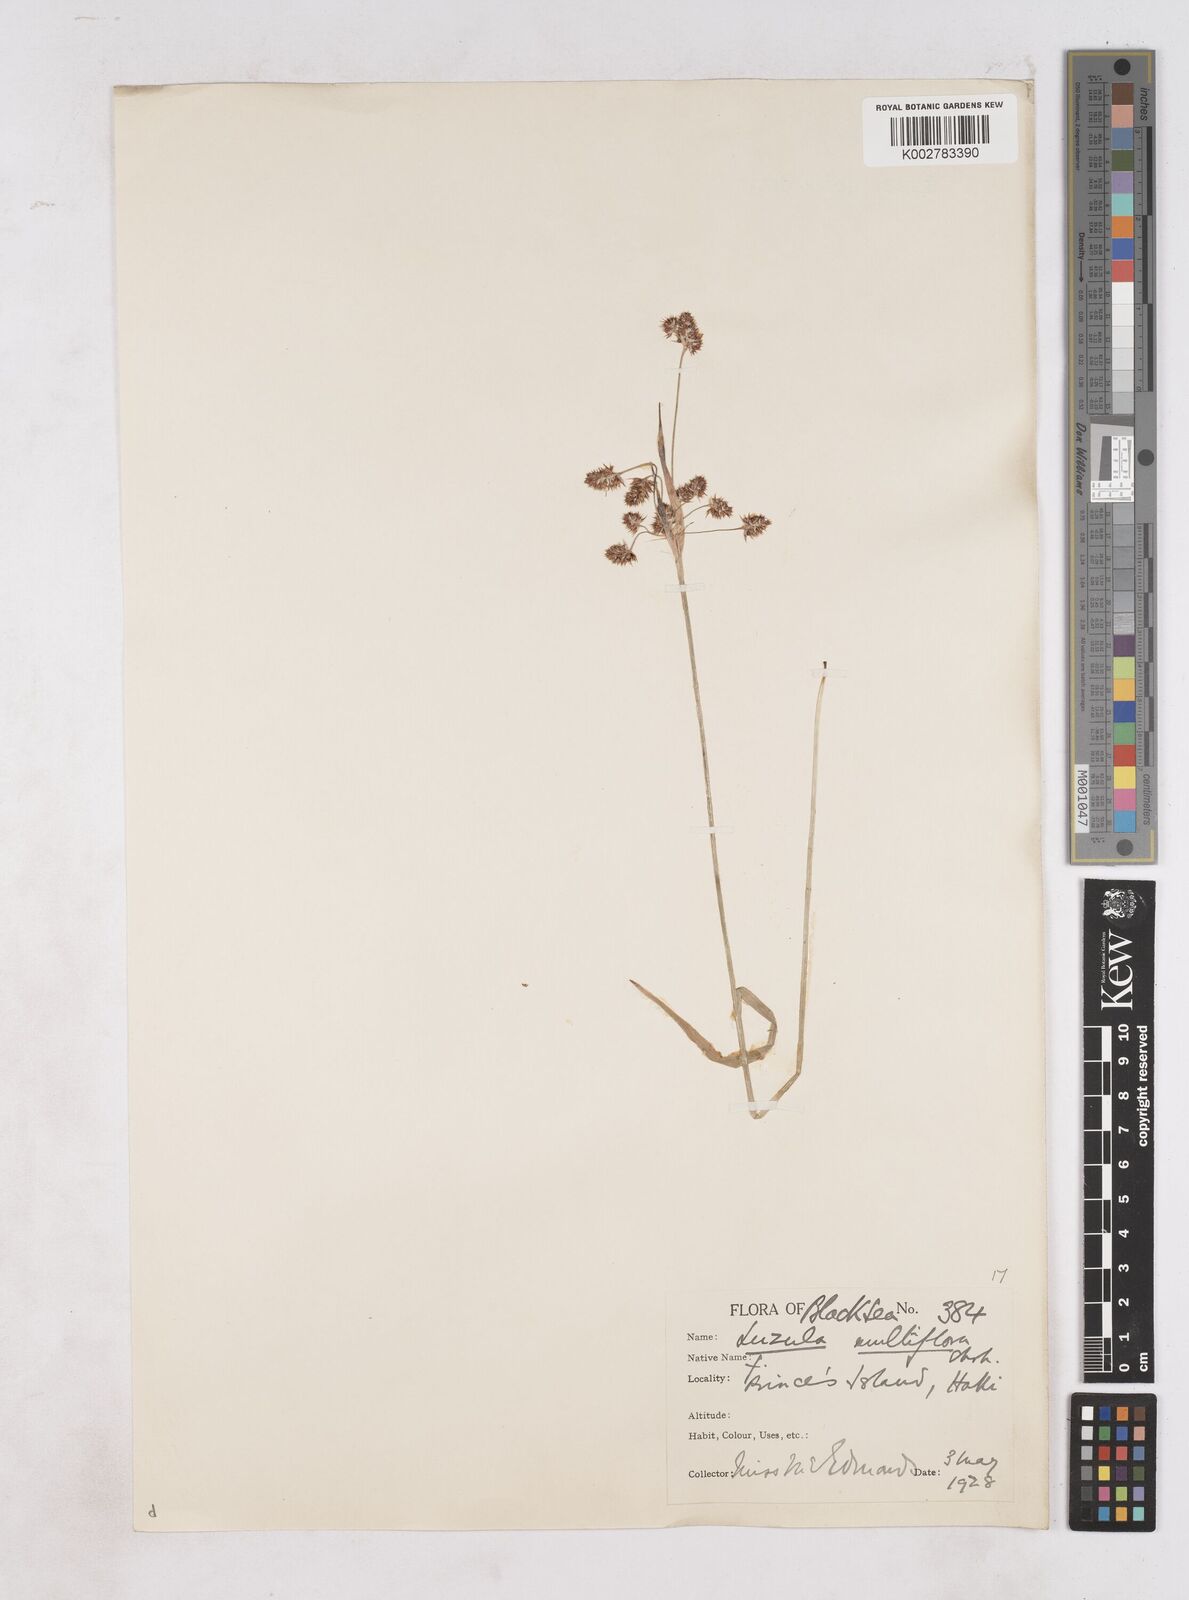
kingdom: Plantae
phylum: Tracheophyta
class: Liliopsida
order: Poales
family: Juncaceae
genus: Luzula
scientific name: Luzula multiflora
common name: Heath wood-rush
